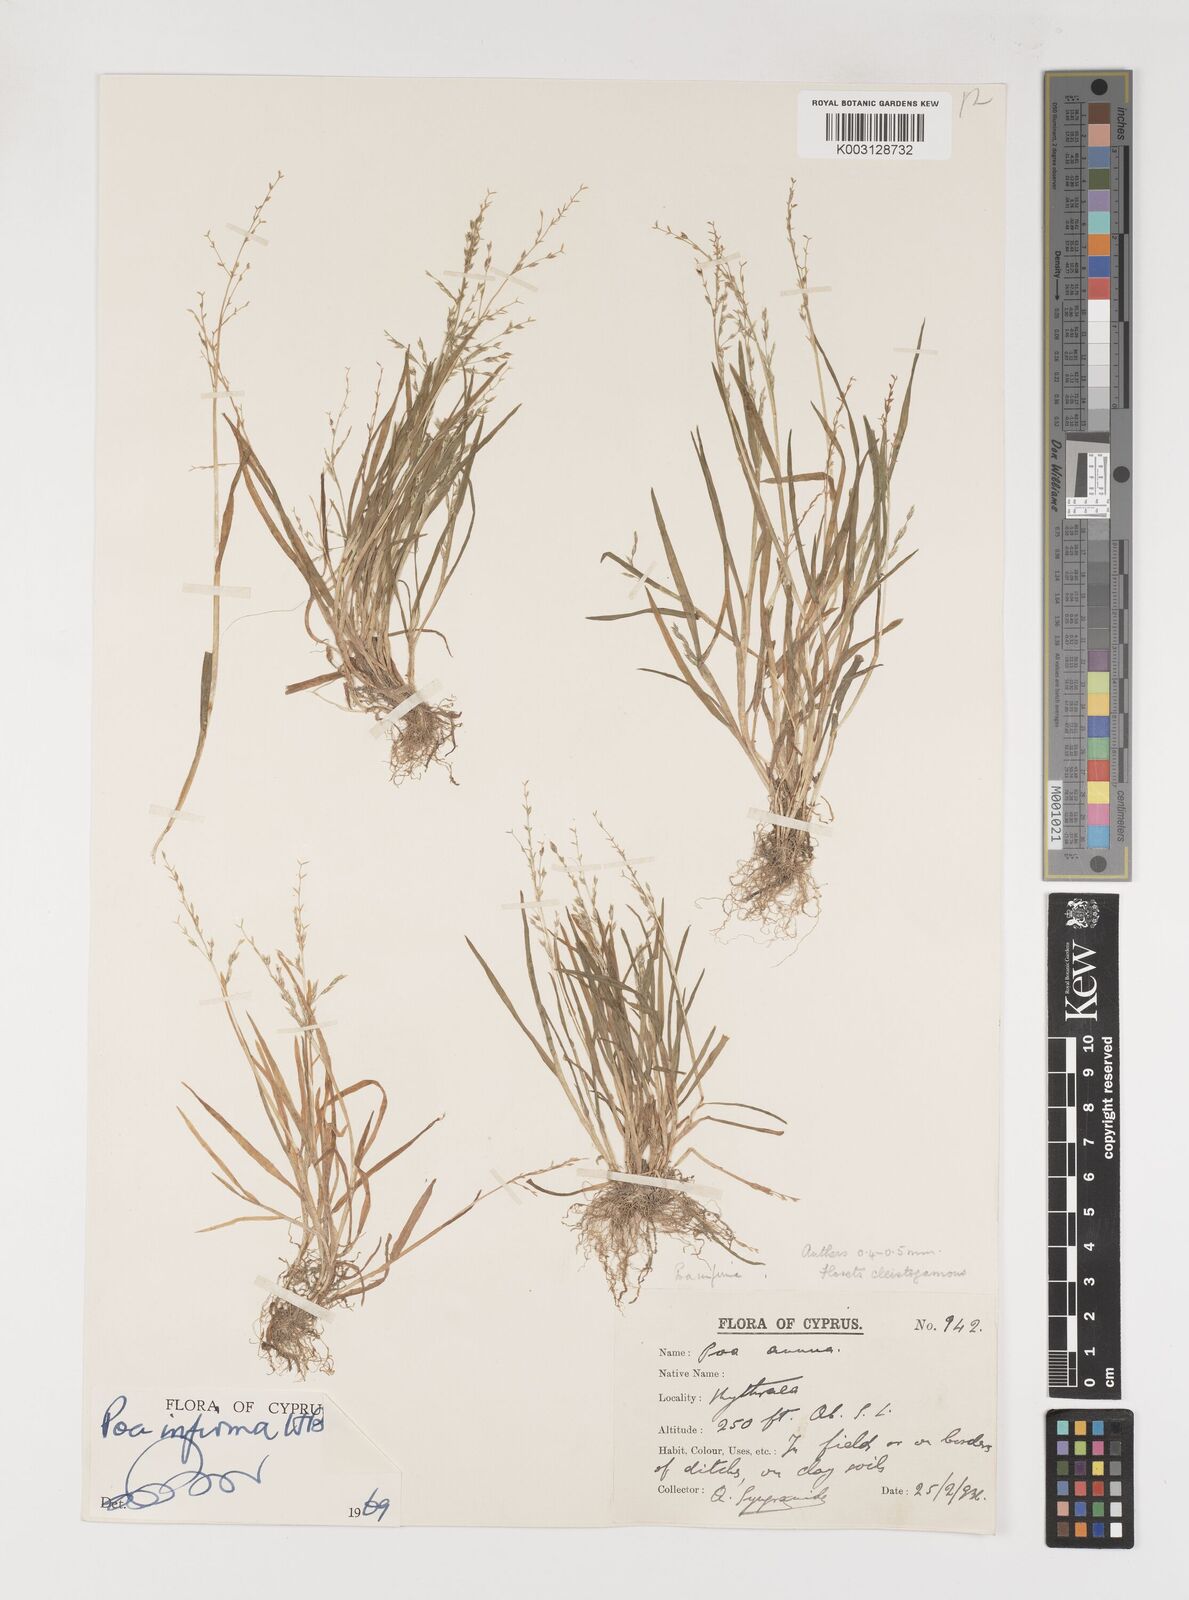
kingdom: Plantae
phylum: Tracheophyta
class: Liliopsida
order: Poales
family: Poaceae
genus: Poa
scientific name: Poa infirma
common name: Weak bluegrass
